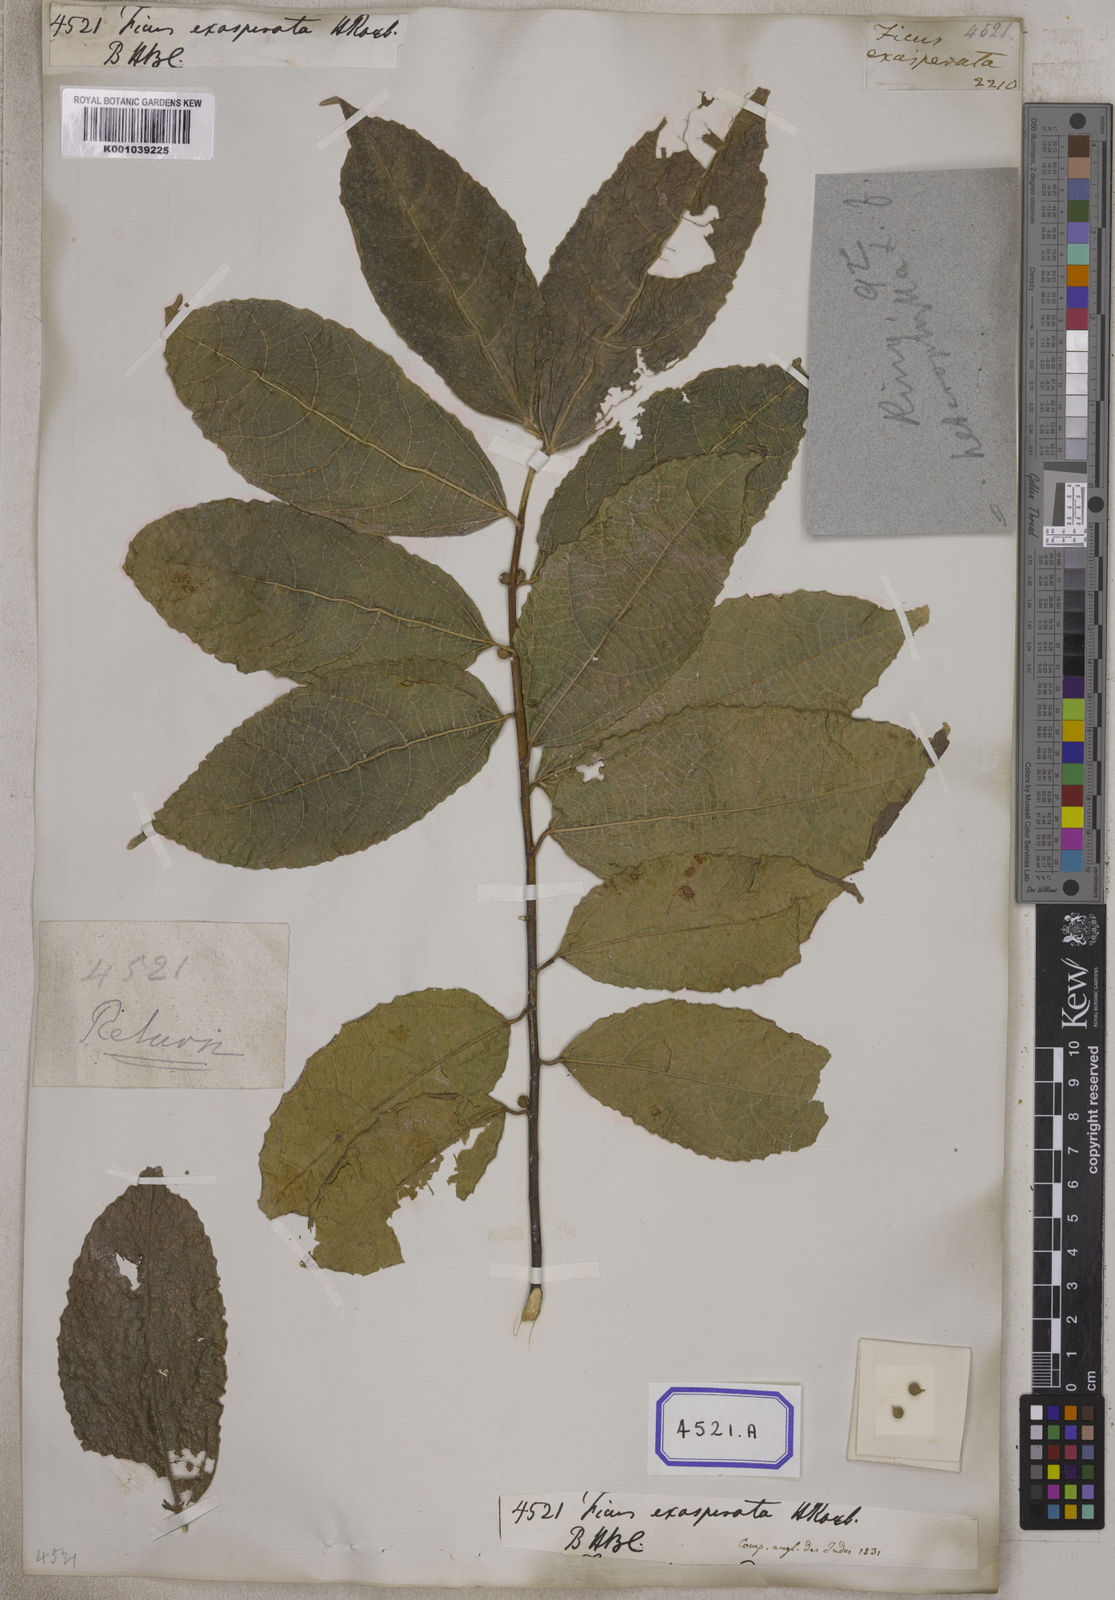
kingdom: Plantae
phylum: Tracheophyta
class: Magnoliopsida
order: Rosales
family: Moraceae
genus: Ficus
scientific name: Ficus ampelos
